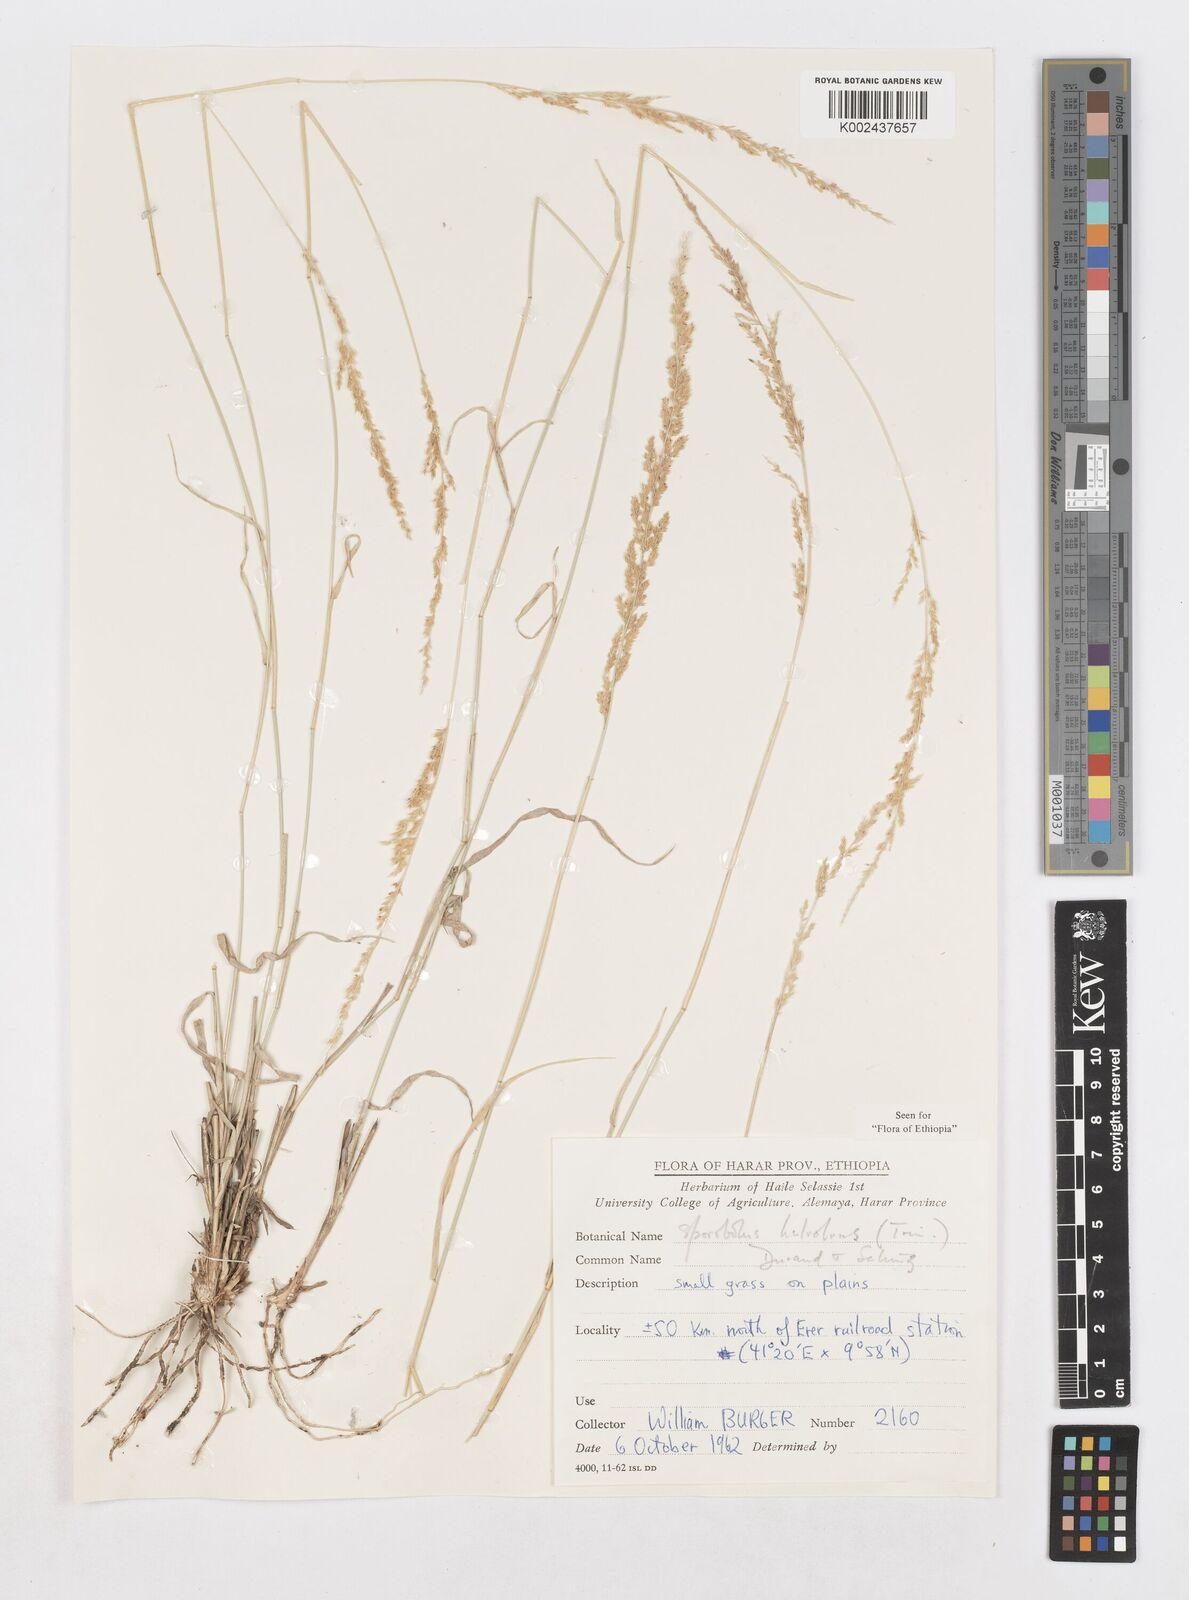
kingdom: Plantae
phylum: Tracheophyta
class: Liliopsida
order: Poales
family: Poaceae
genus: Sporobolus
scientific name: Sporobolus helvolus
